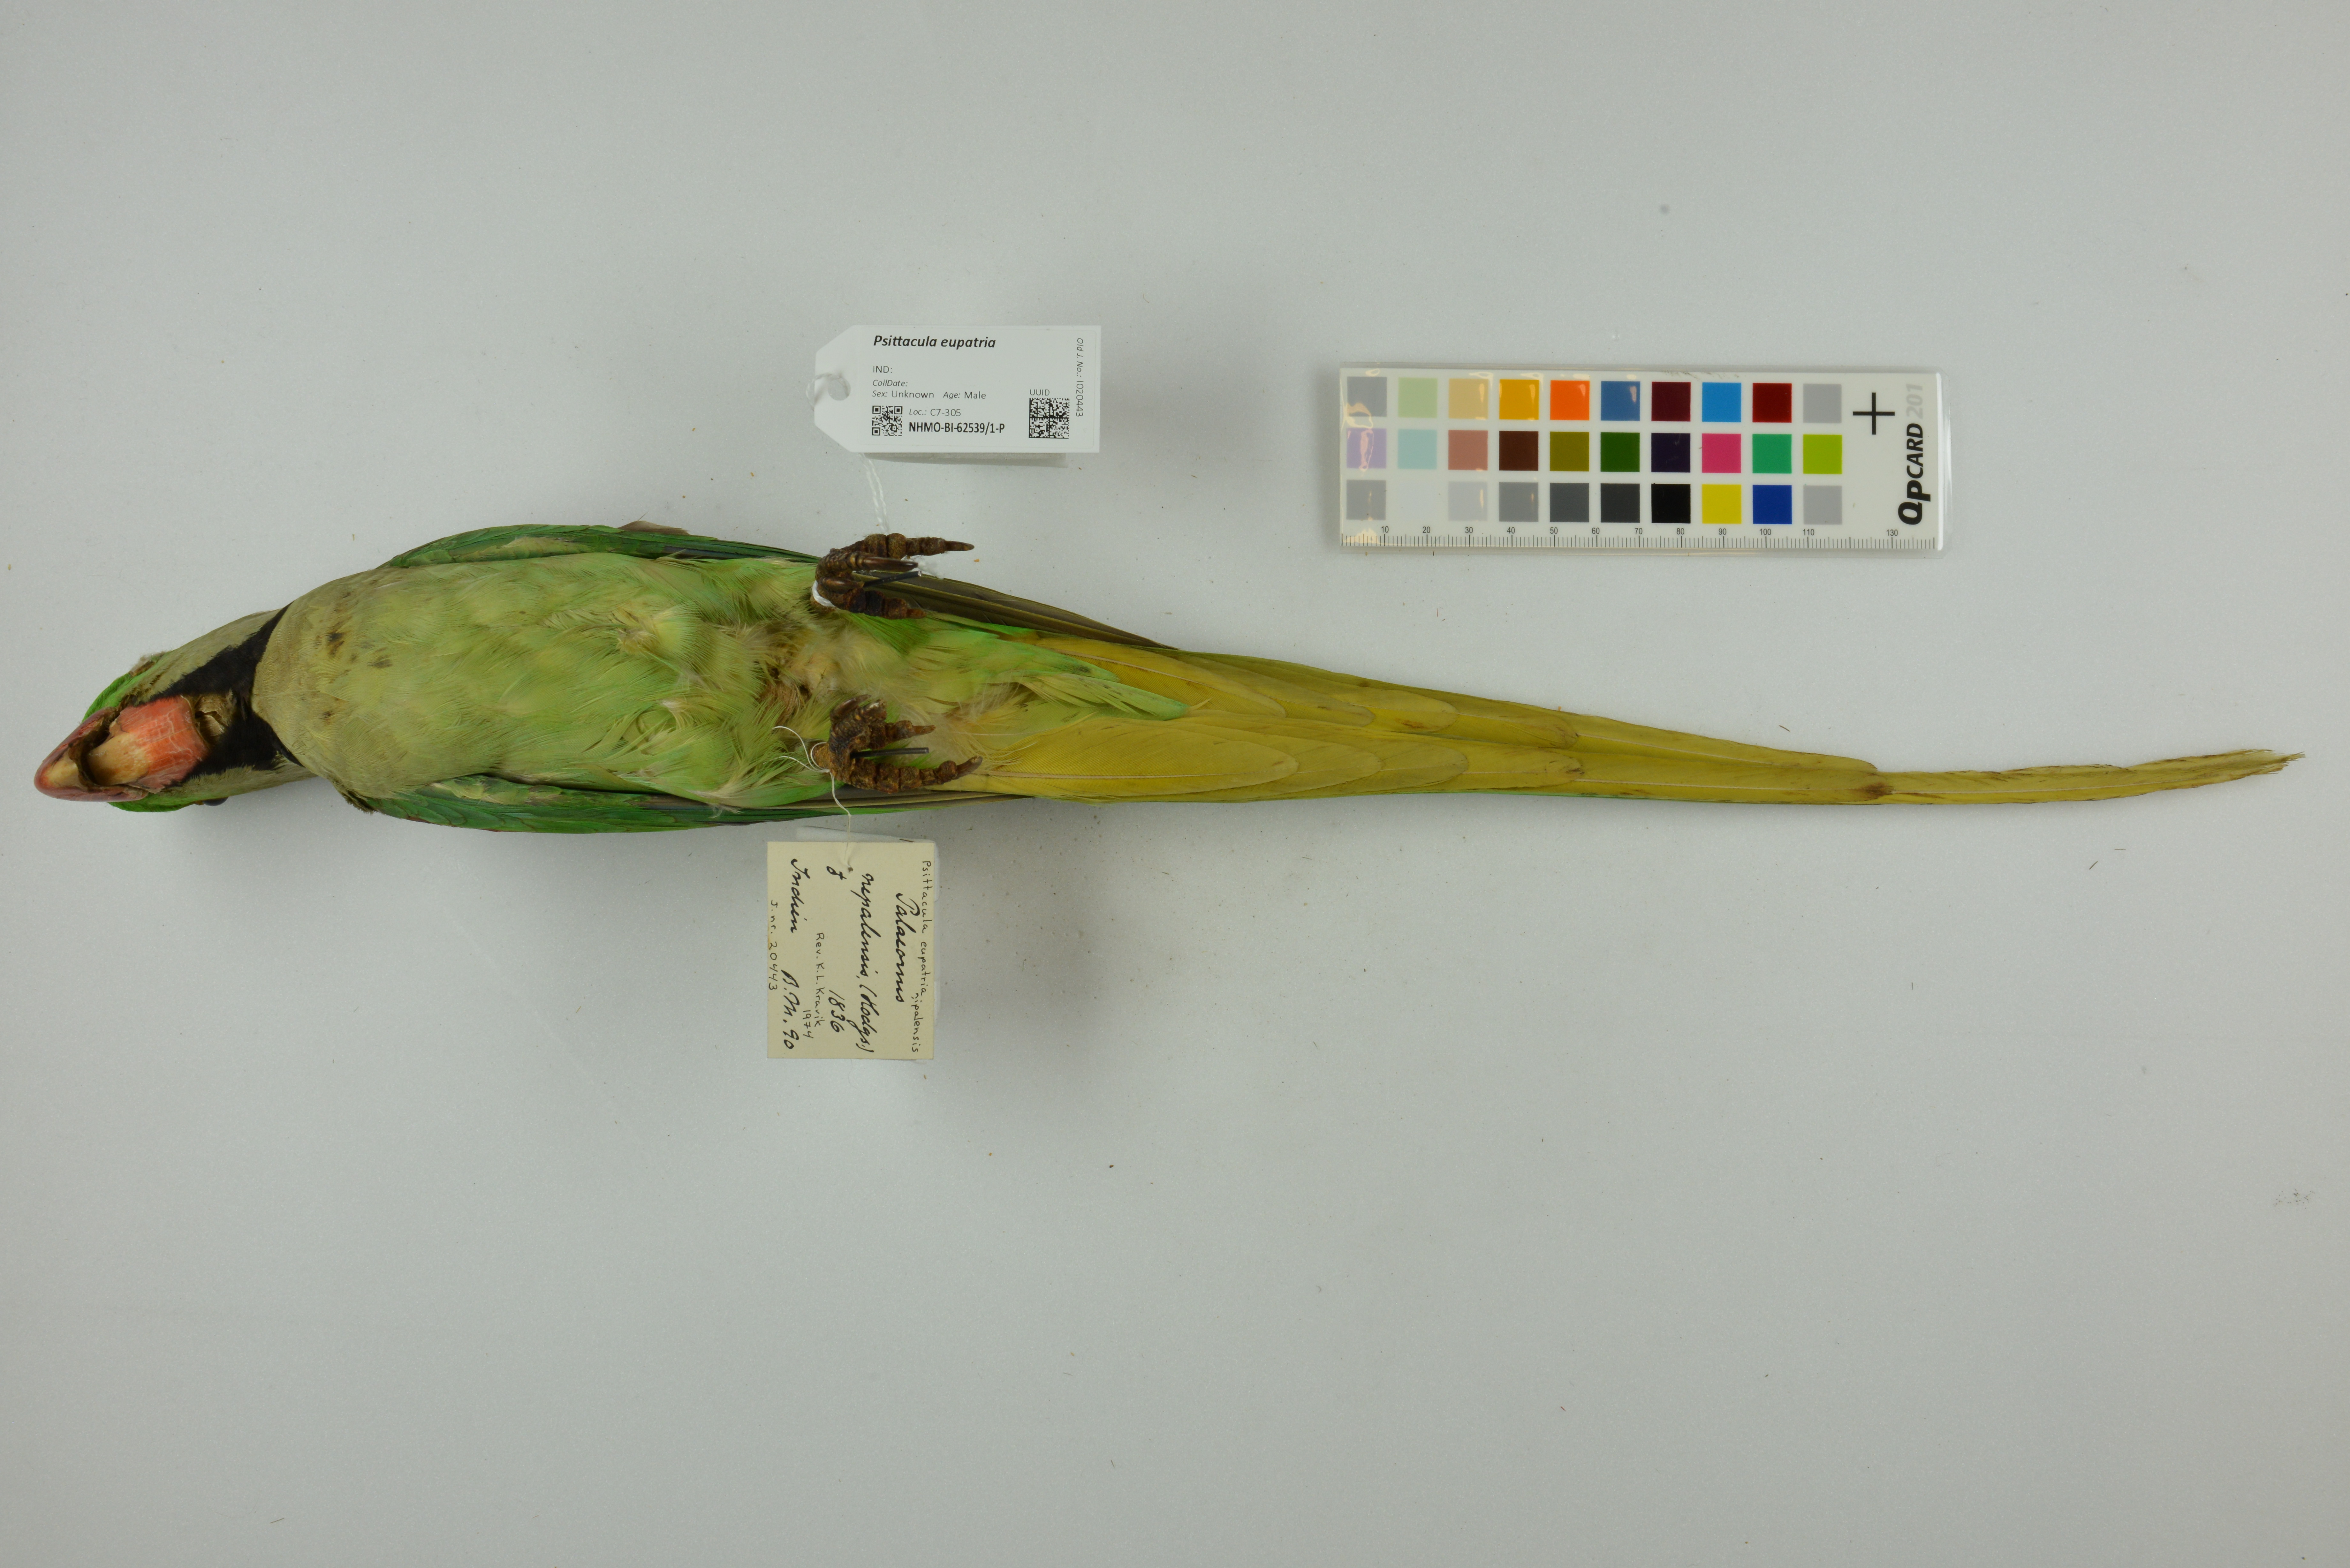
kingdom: Animalia
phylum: Chordata
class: Aves
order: Psittaciformes
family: Psittacidae
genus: Psittacula
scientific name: Psittacula eupatria
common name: Alexandrine parakeet
